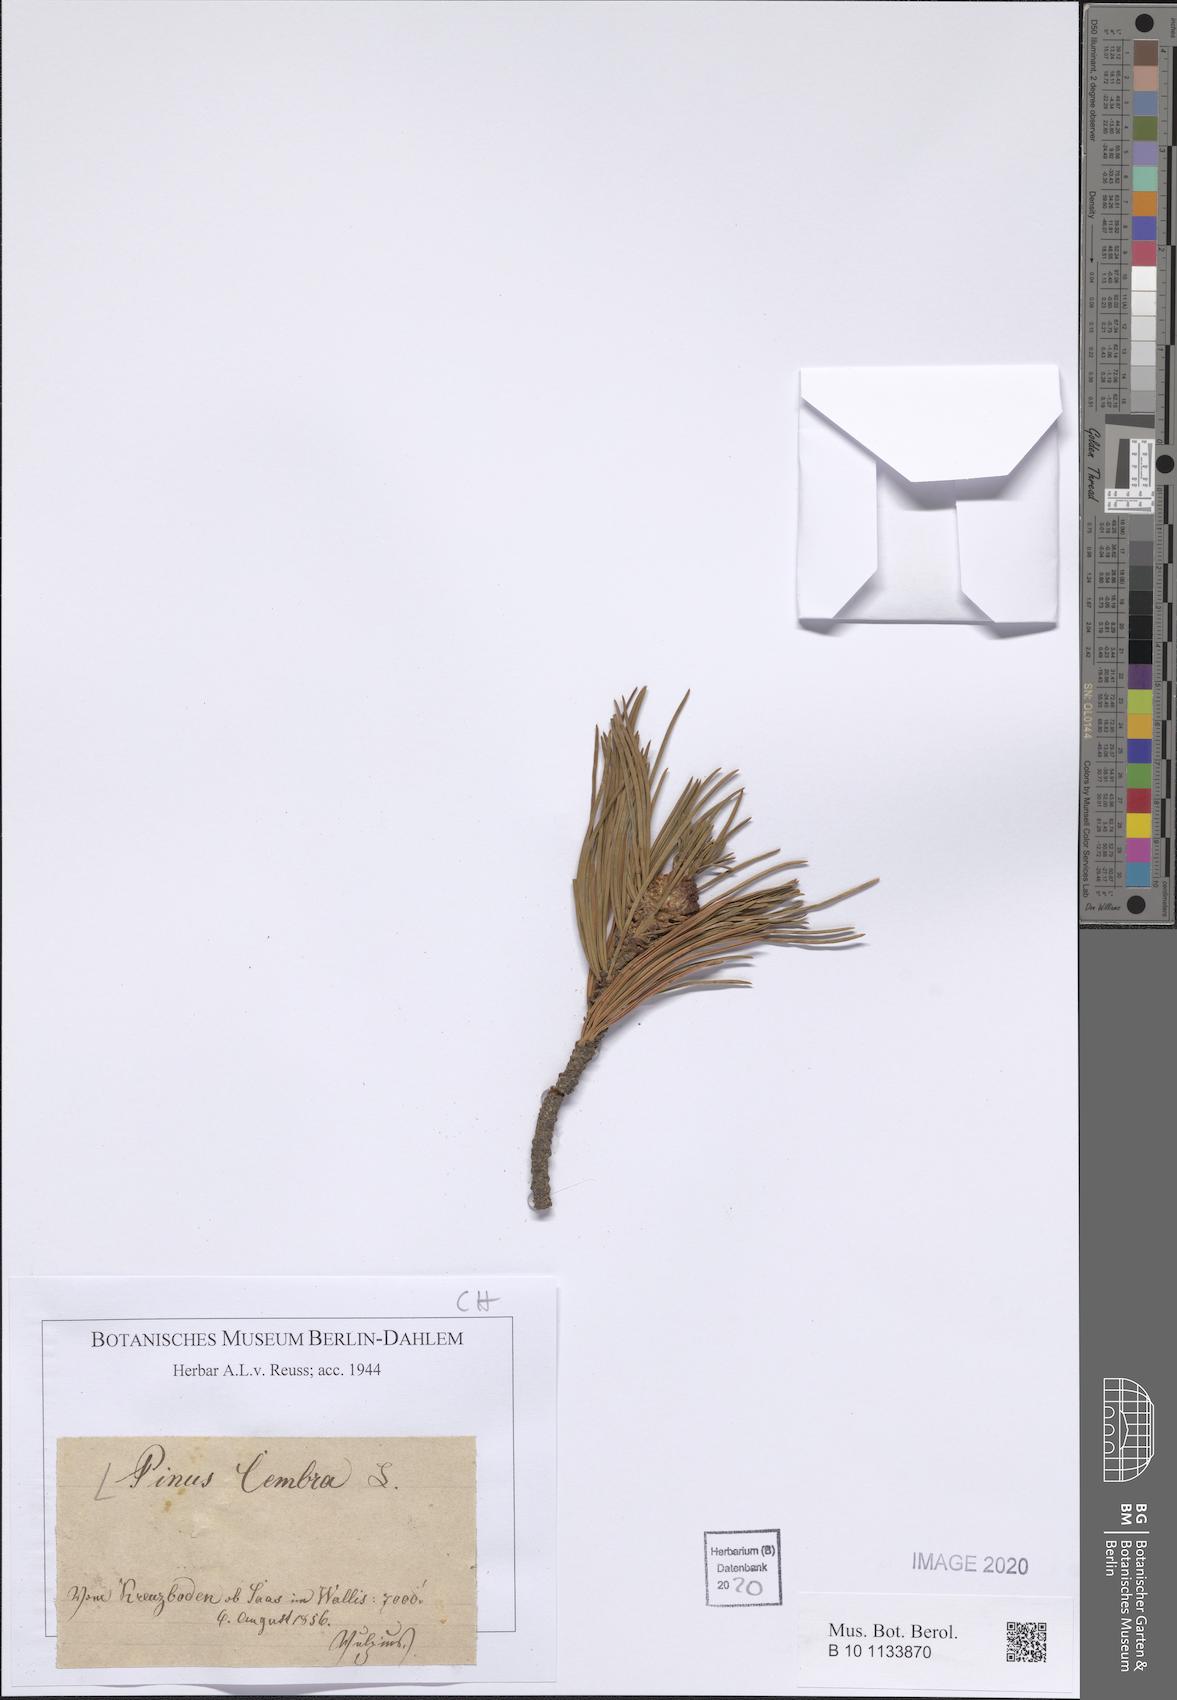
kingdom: Plantae
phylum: Tracheophyta
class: Pinopsida
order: Pinales
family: Pinaceae
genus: Pinus
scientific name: Pinus cembra
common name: Arolla pine
